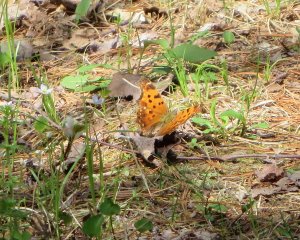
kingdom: Animalia
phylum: Arthropoda
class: Insecta
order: Lepidoptera
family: Nymphalidae
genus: Polygonia
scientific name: Polygonia comma
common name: Eastern Comma
